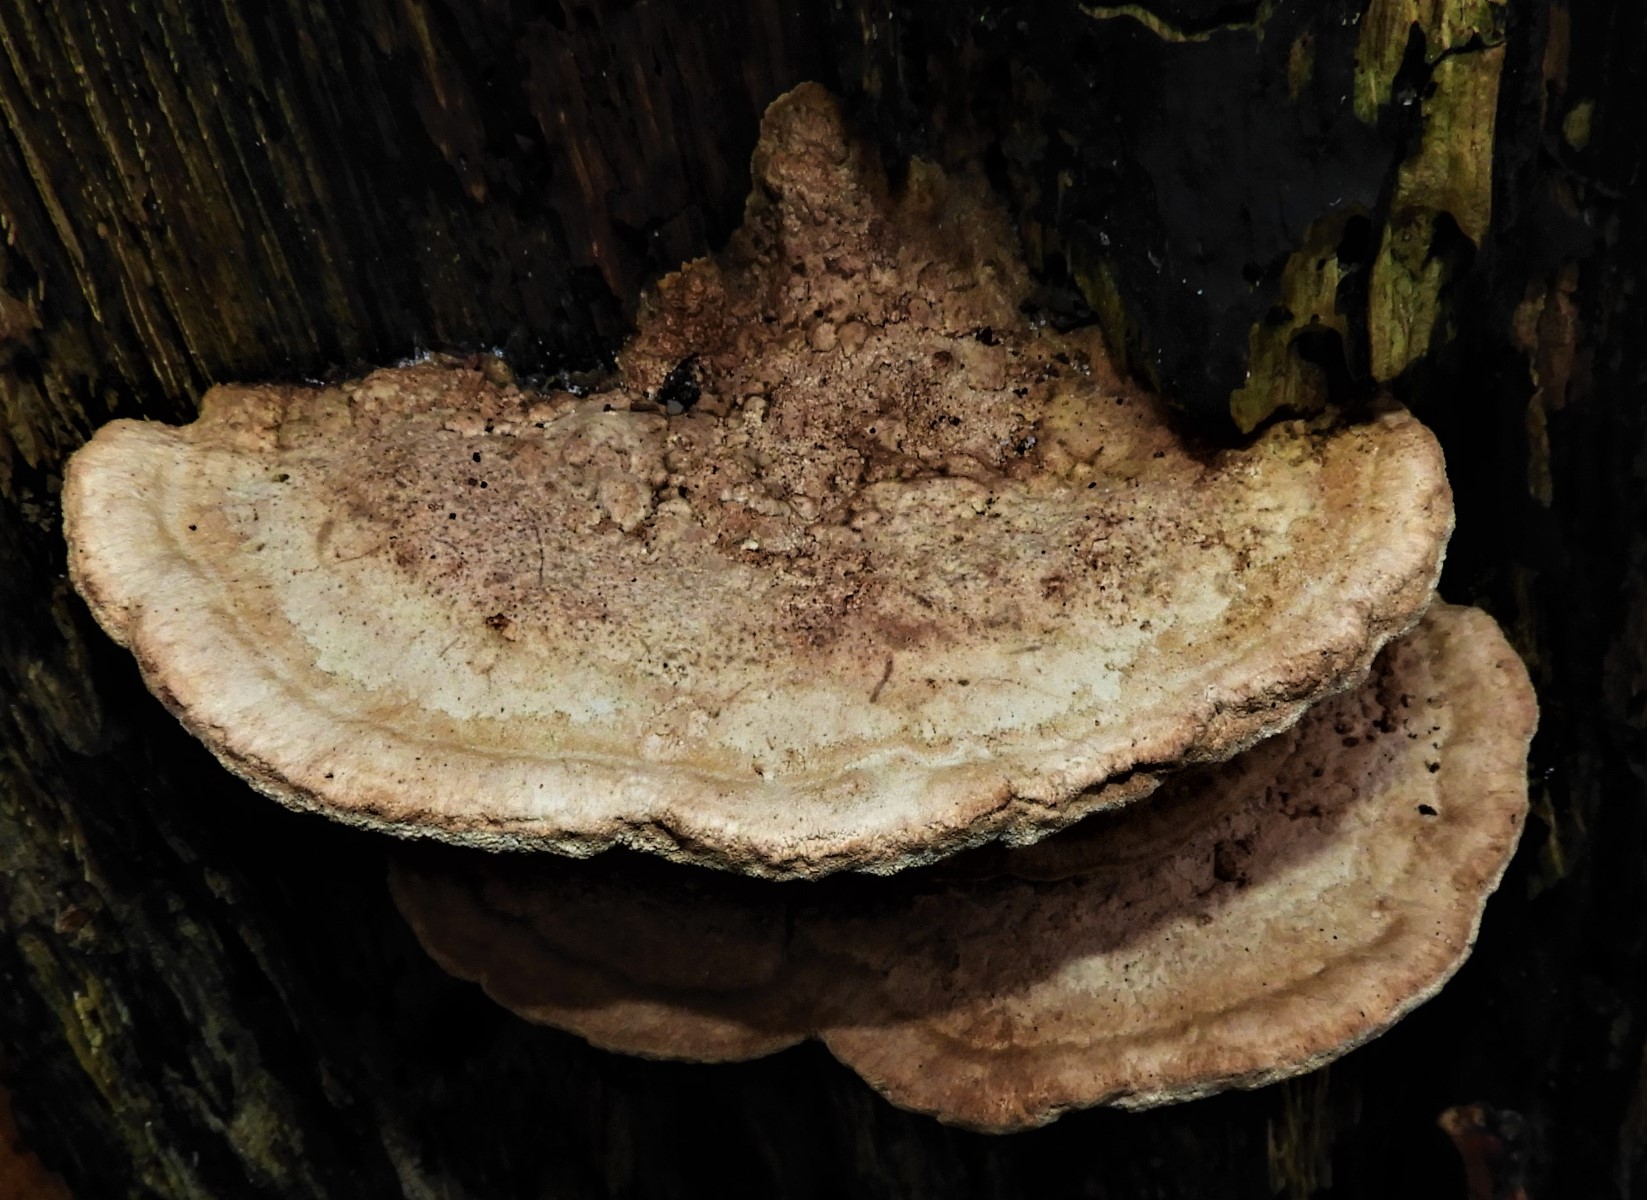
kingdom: Fungi
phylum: Basidiomycota
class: Agaricomycetes
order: Polyporales
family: Fomitopsidaceae
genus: Daedalea
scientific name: Daedalea quercina
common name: ege-labyrintsvamp
